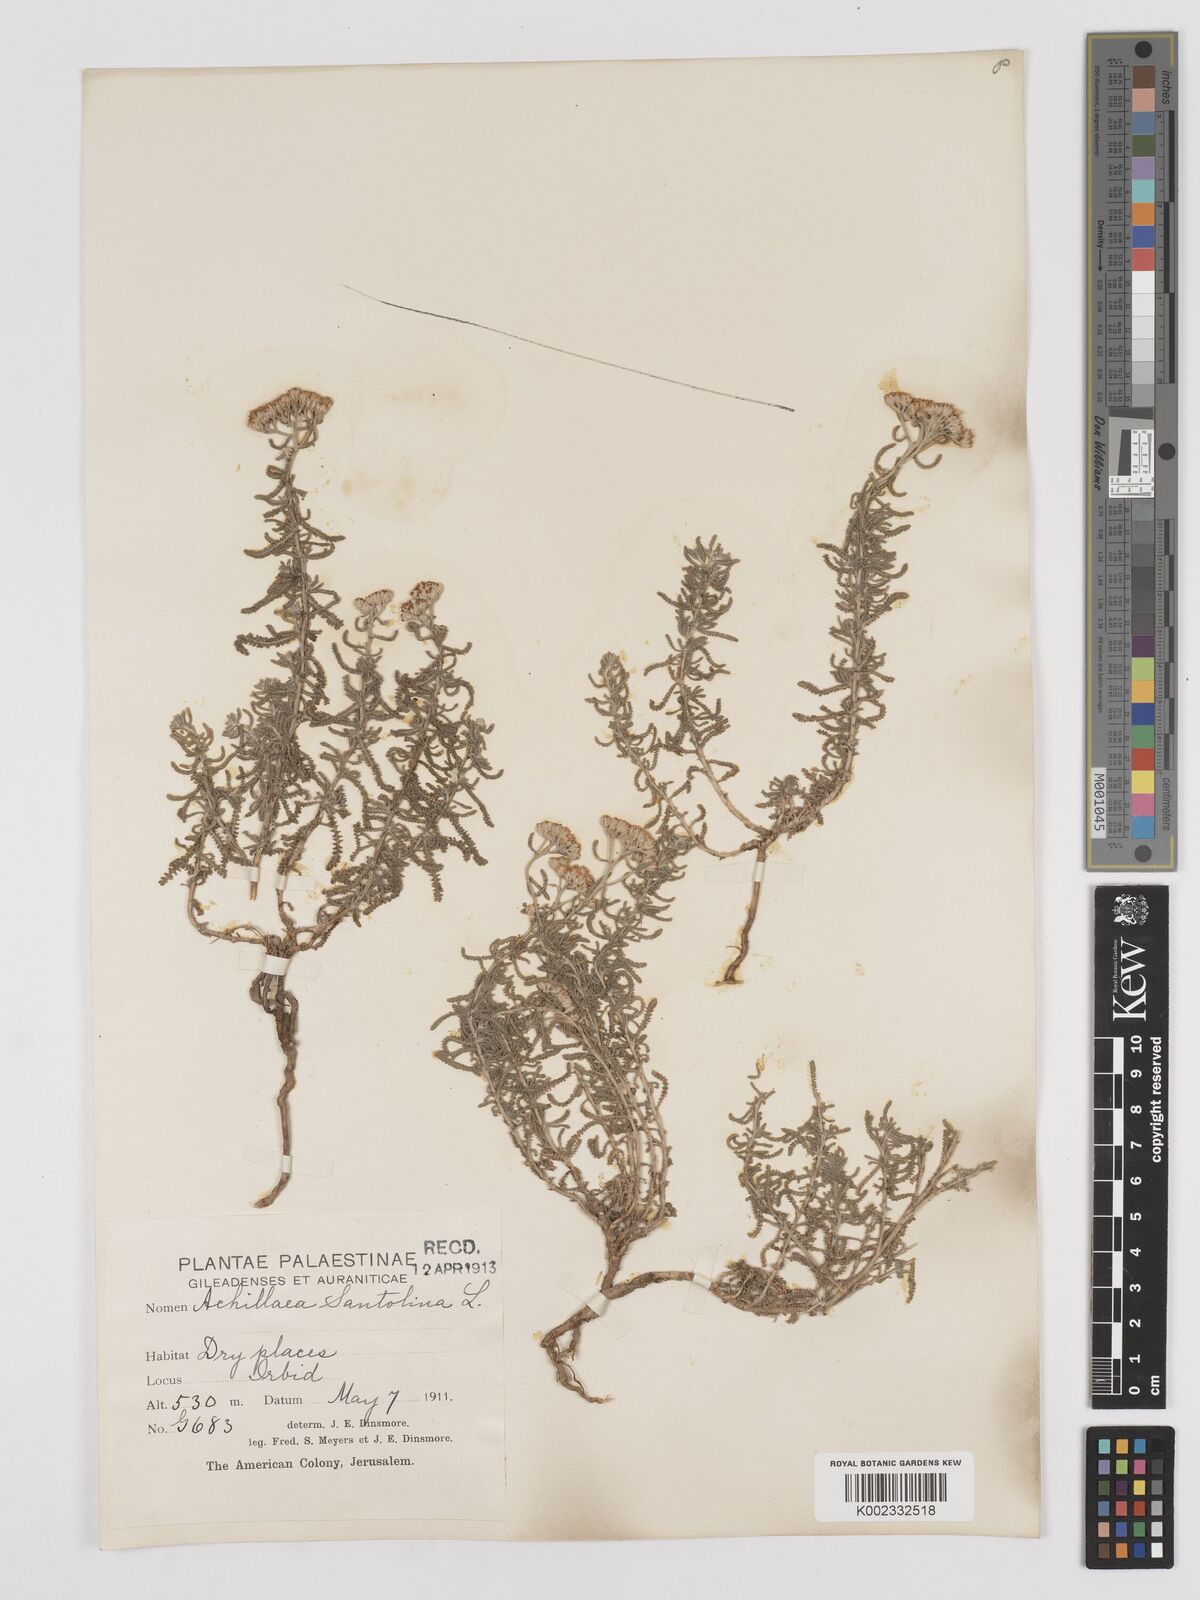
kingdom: Plantae
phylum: Tracheophyta
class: Magnoliopsida
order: Asterales
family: Asteraceae
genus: Achillea
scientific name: Achillea tenuifolia
